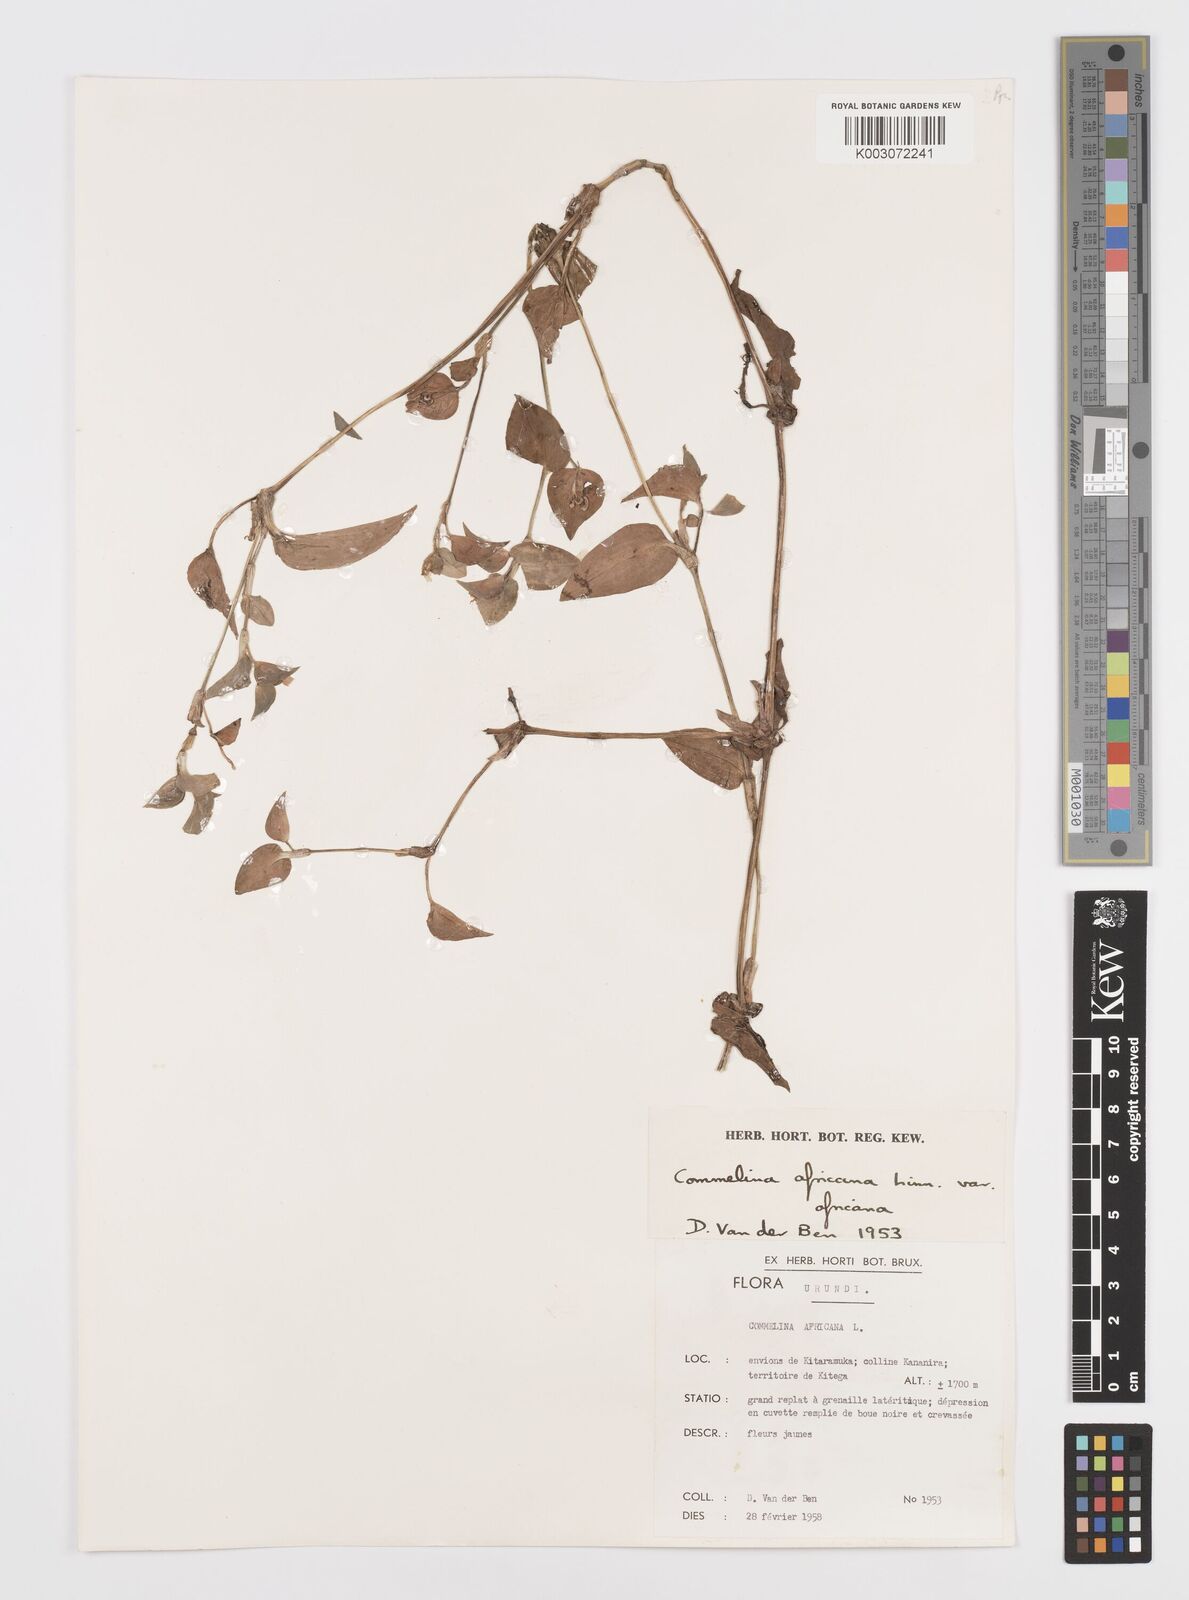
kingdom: Plantae
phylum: Tracheophyta
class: Liliopsida
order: Commelinales
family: Commelinaceae
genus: Commelina
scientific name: Commelina africana
